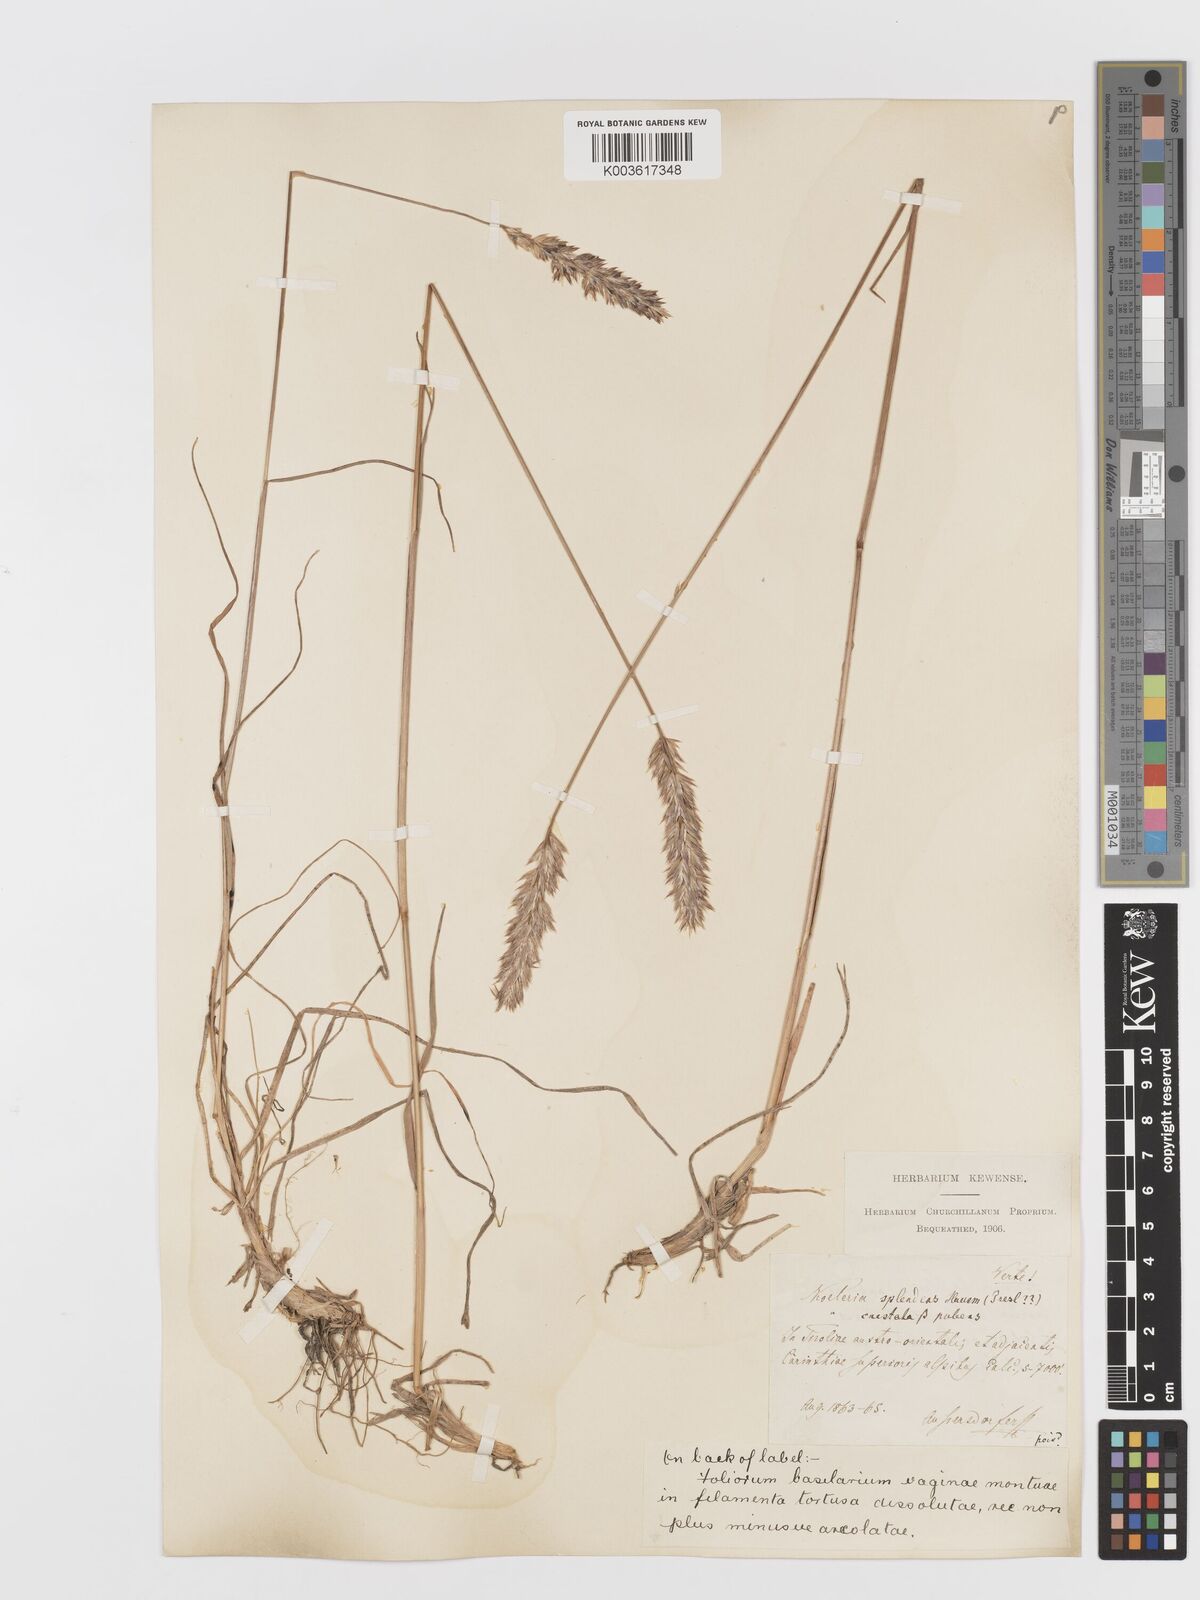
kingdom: Plantae
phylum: Tracheophyta
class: Liliopsida
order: Poales
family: Poaceae
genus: Koeleria
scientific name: Koeleria splendens
